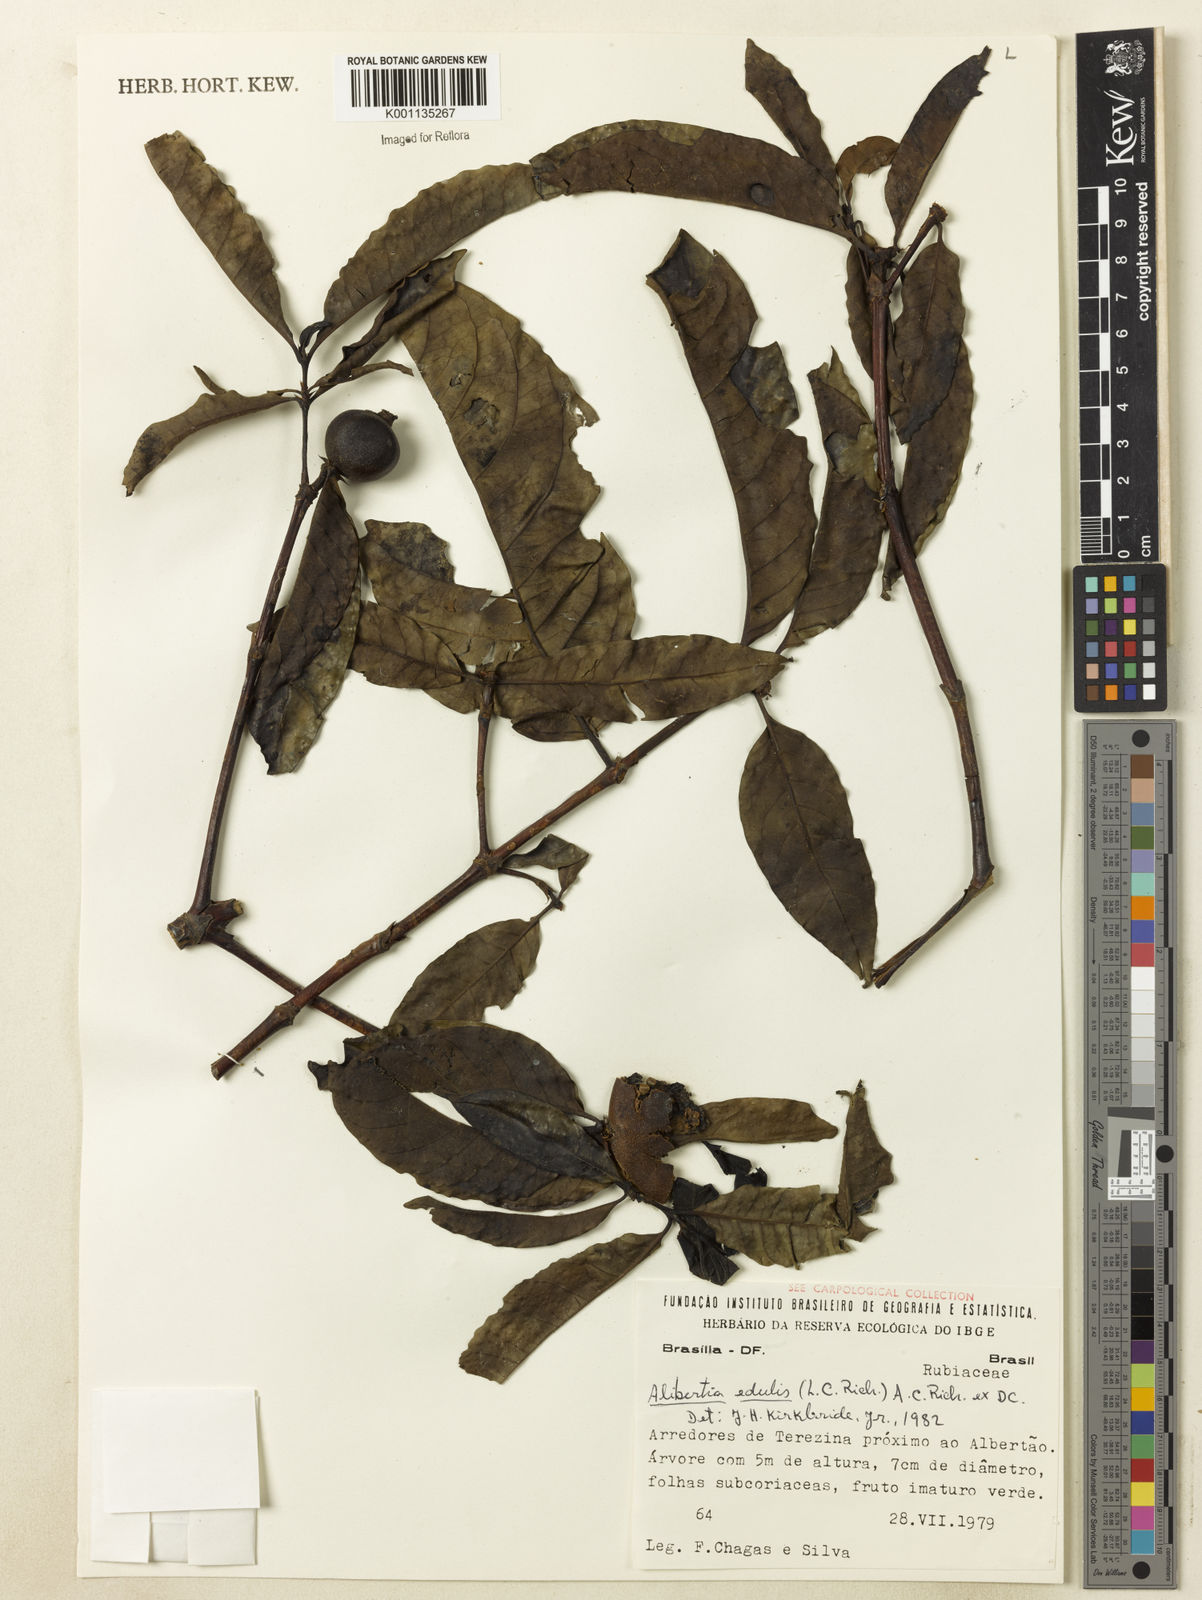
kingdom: Plantae
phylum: Tracheophyta
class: Magnoliopsida
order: Gentianales
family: Rubiaceae
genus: Alibertia
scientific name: Alibertia edulis
